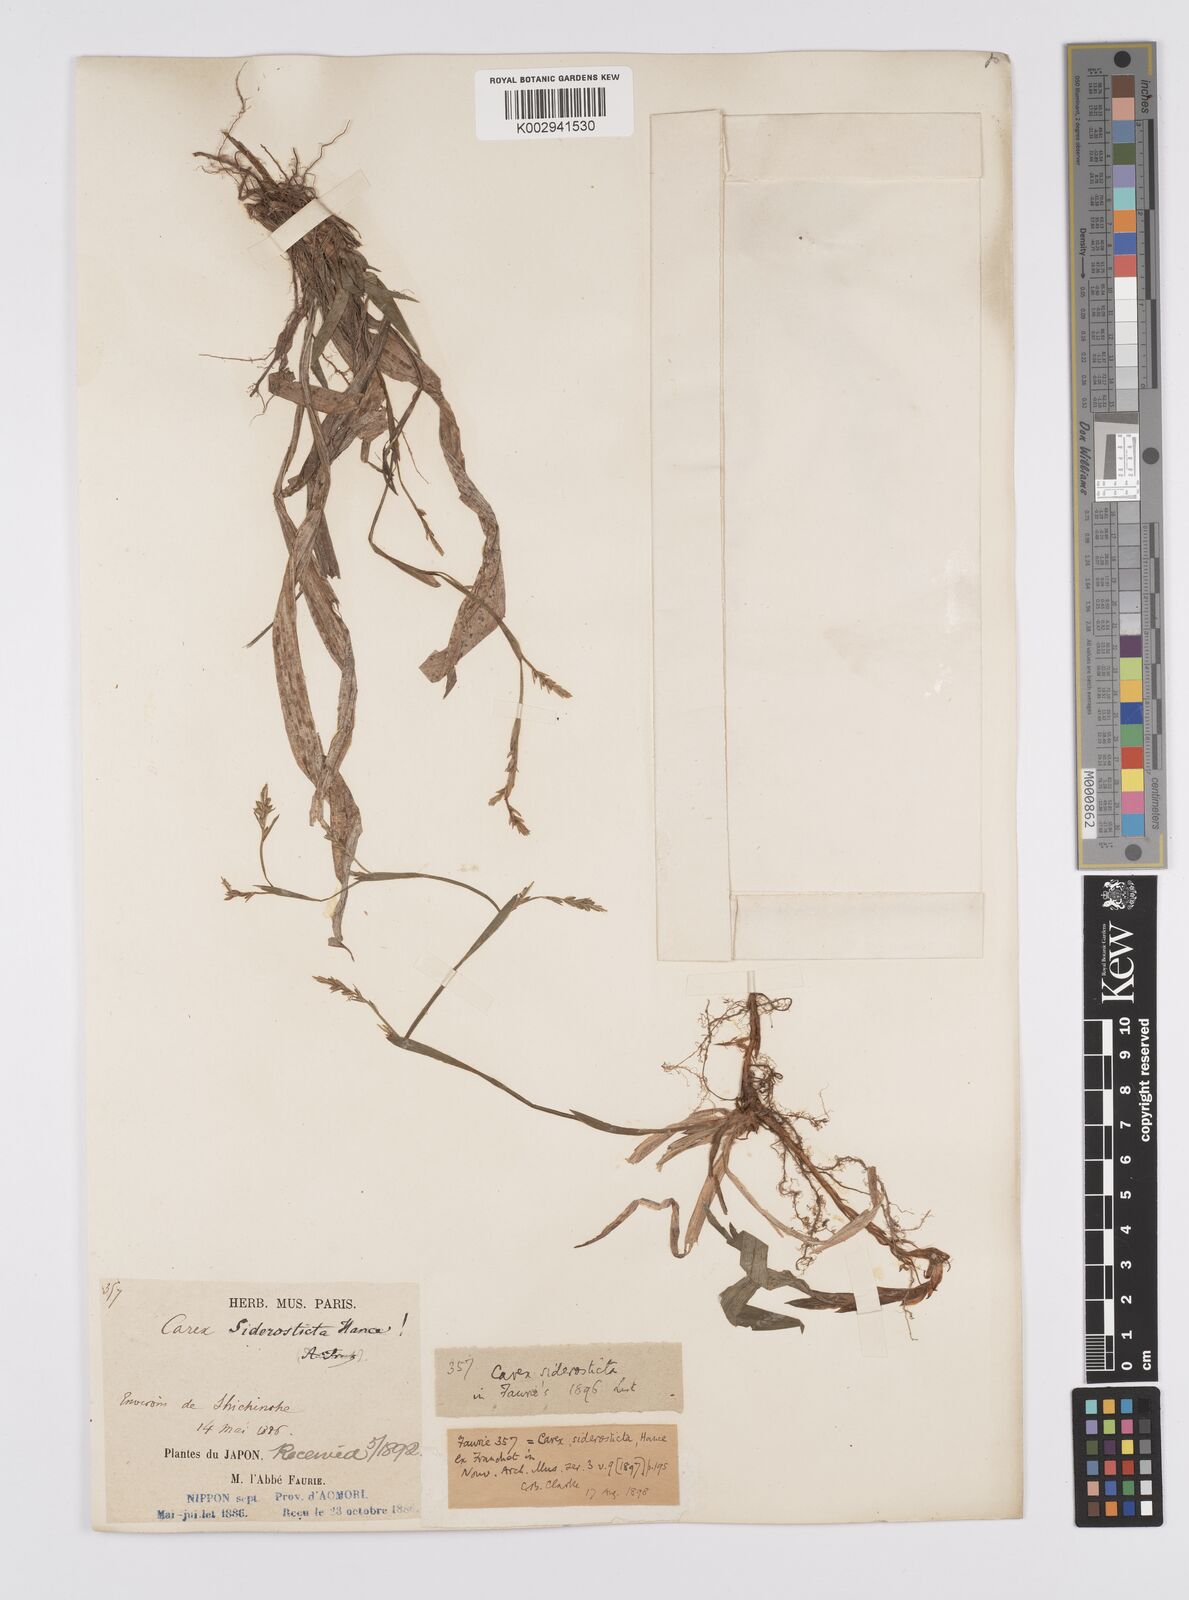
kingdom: Plantae
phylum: Tracheophyta
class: Liliopsida
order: Poales
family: Cyperaceae
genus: Carex
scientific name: Carex siderosticta
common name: Broadleaf sedge
